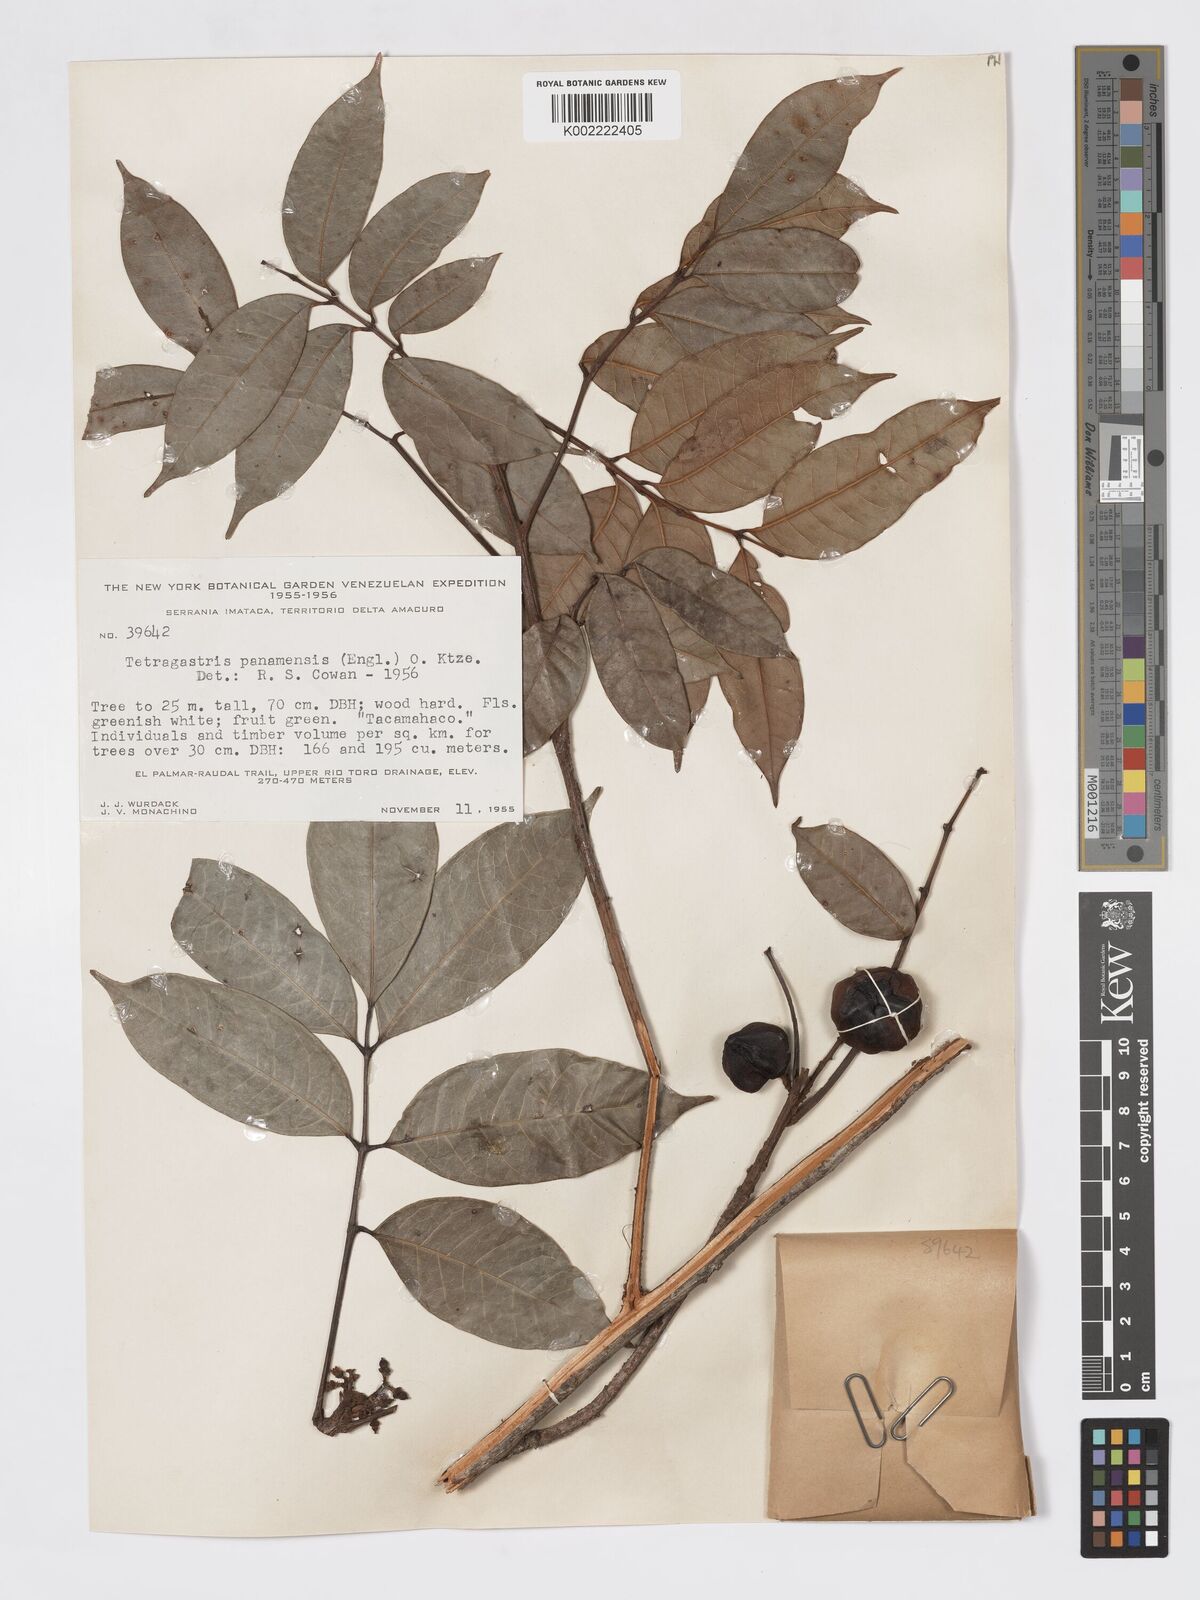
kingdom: Plantae
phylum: Tracheophyta
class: Magnoliopsida
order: Sapindales
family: Burseraceae
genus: Tetragastris
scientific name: Tetragastris panamensis
